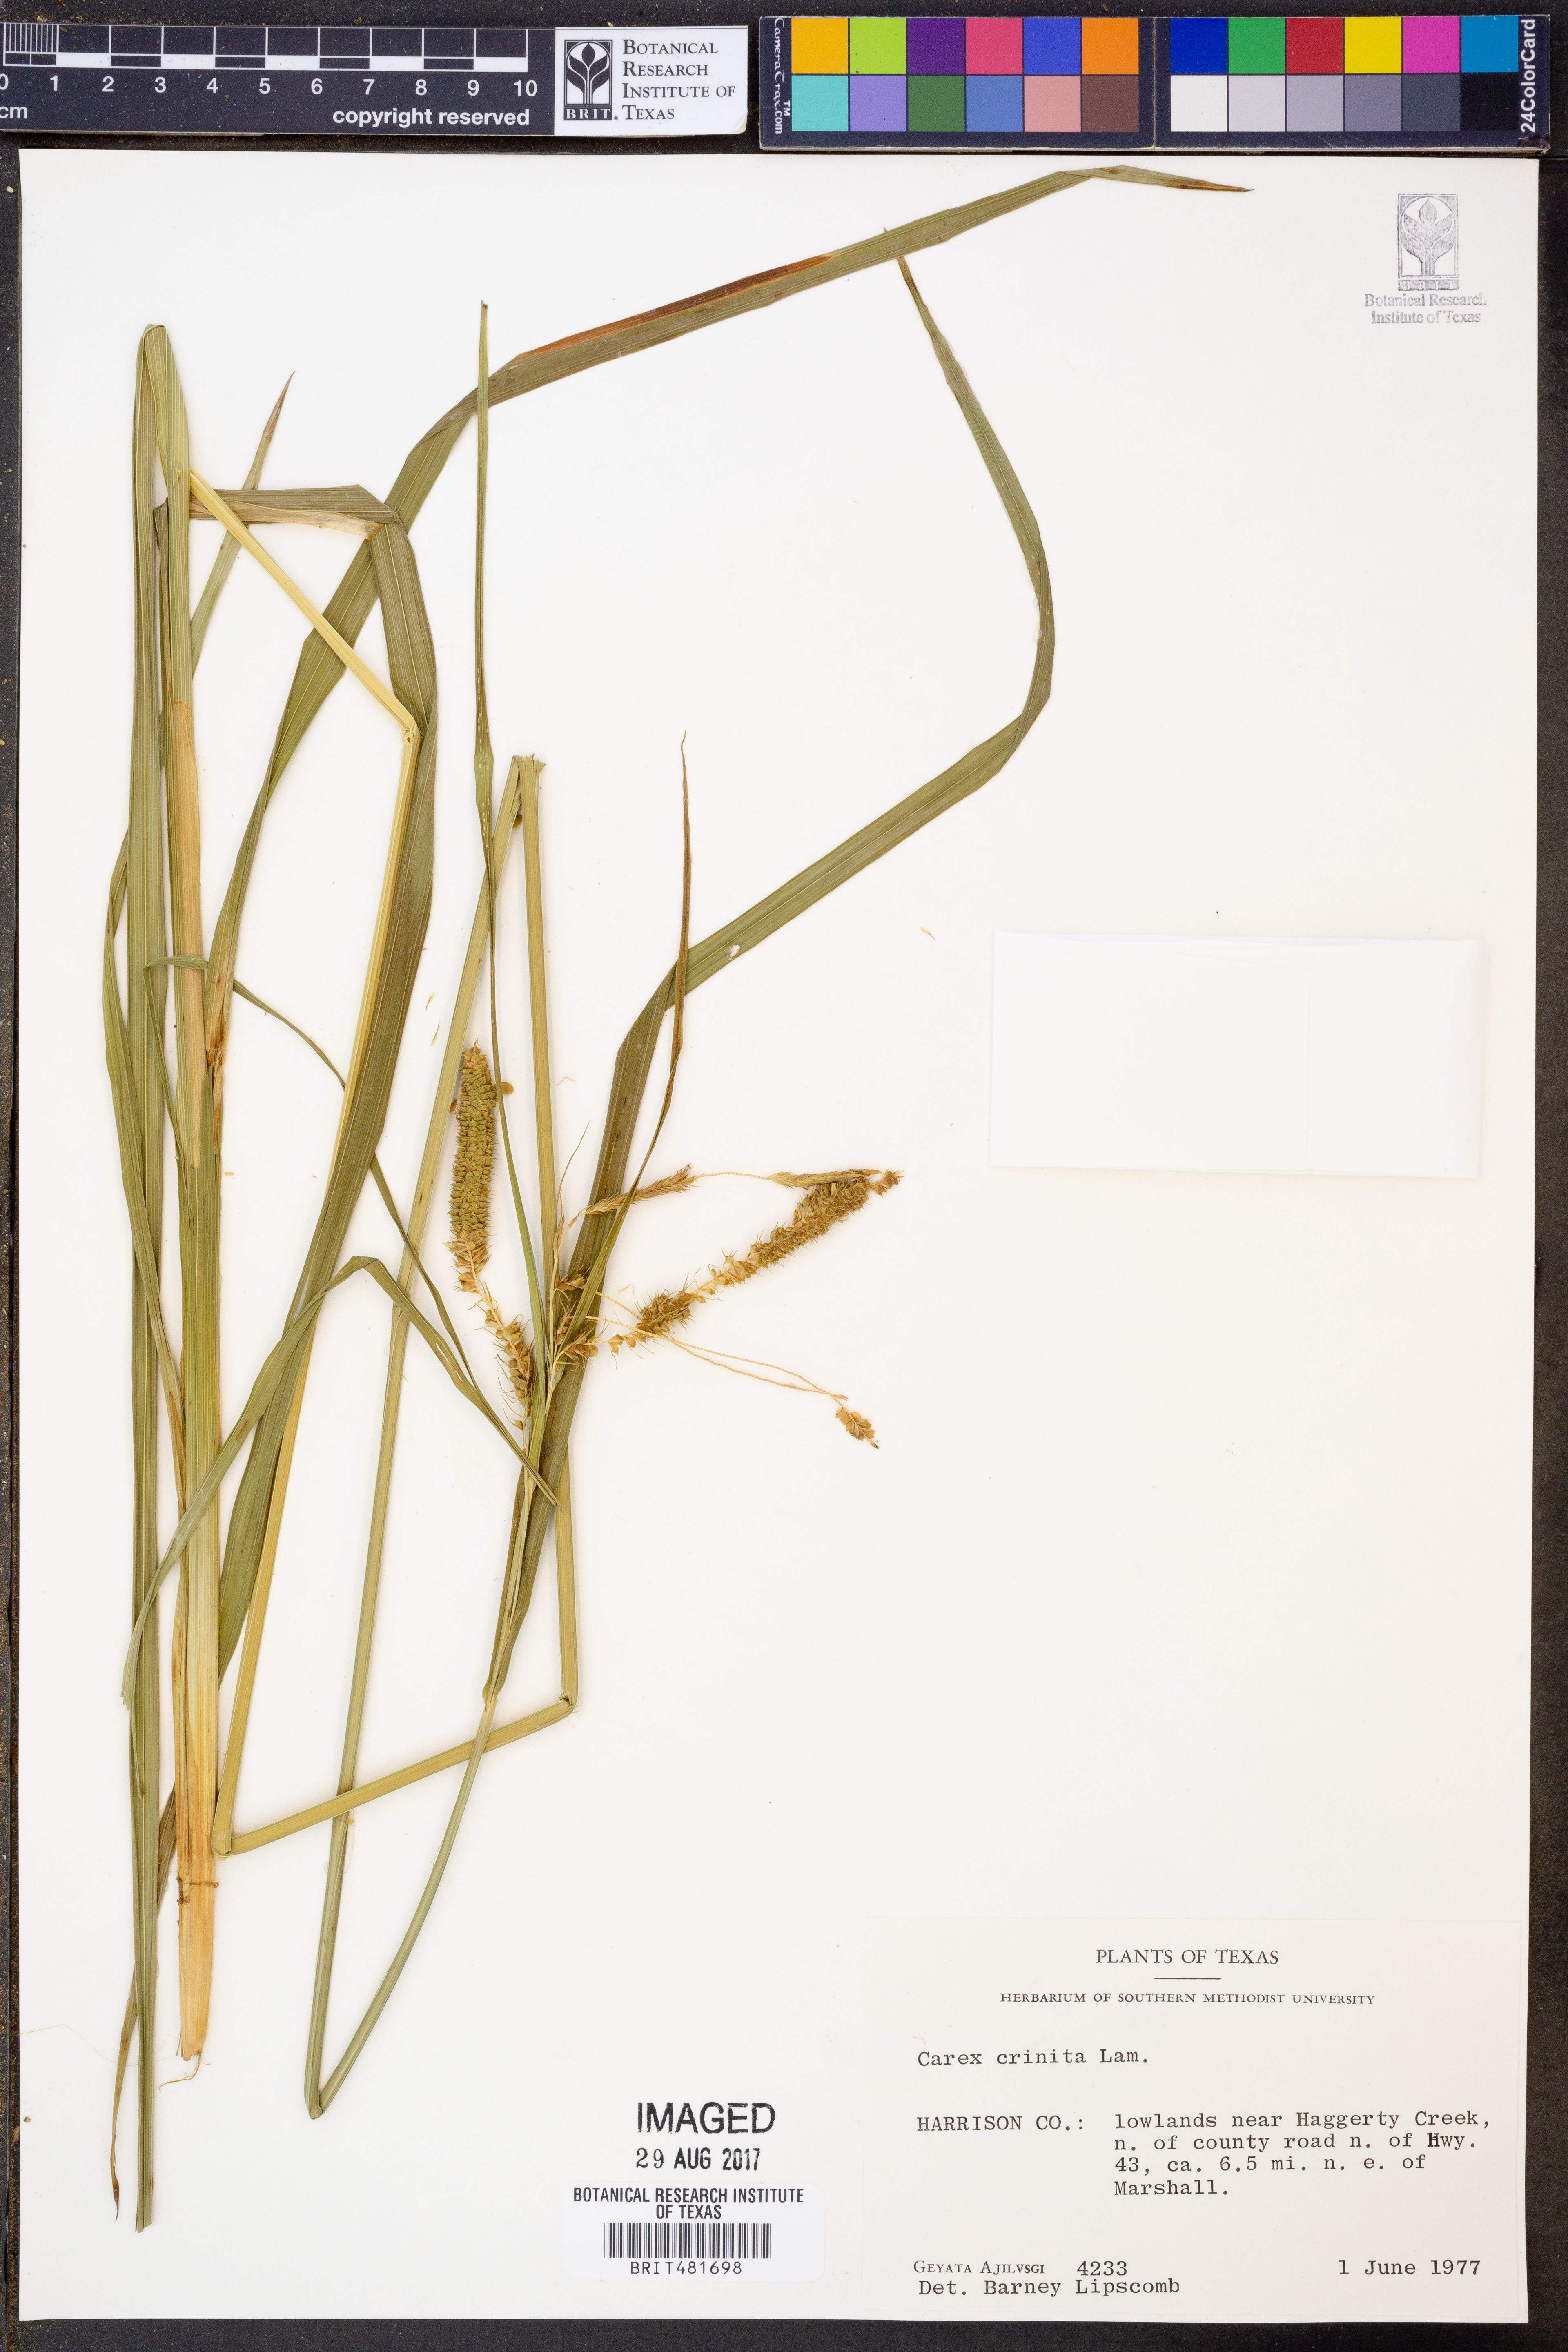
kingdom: Plantae
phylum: Tracheophyta
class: Liliopsida
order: Poales
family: Cyperaceae
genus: Carex
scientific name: Carex crinita
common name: Fringed sedge
